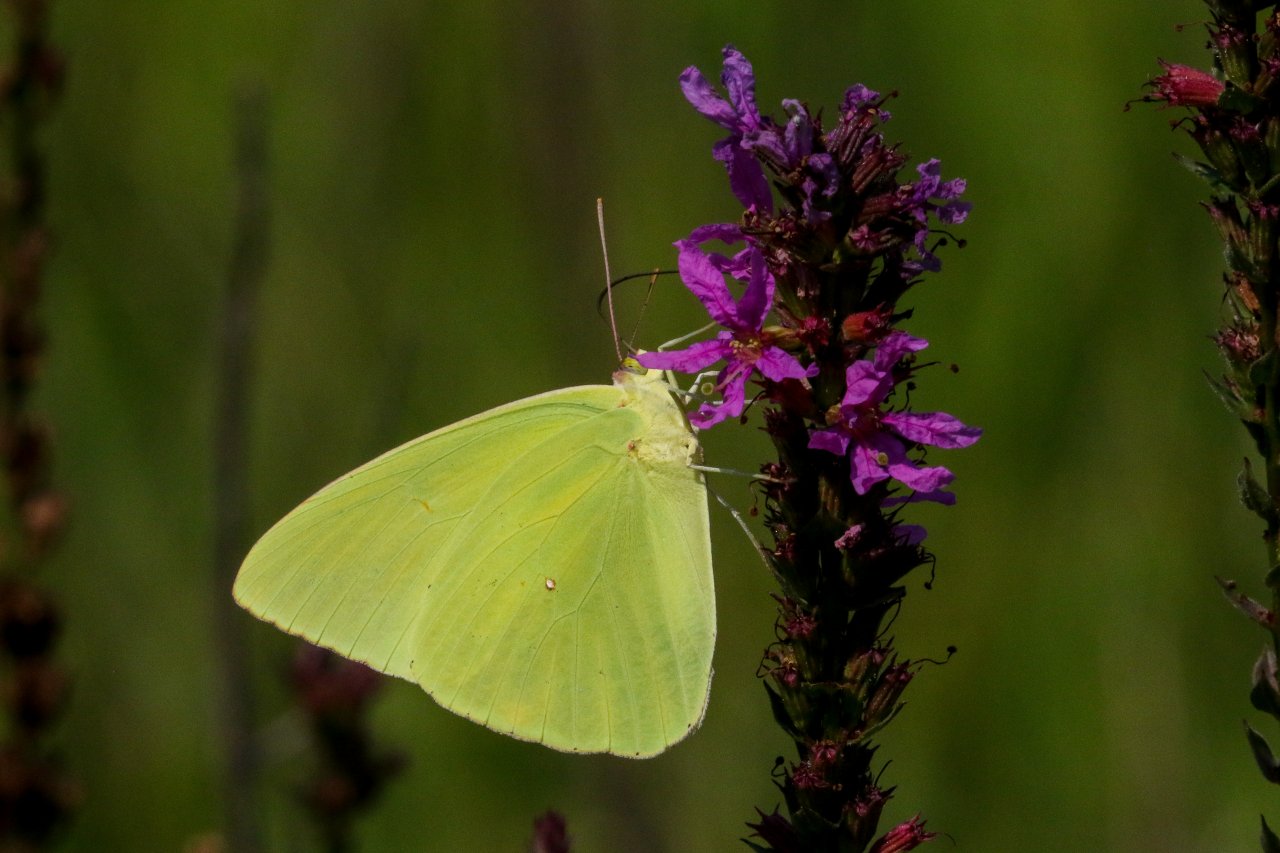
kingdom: Animalia
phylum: Arthropoda
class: Insecta
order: Lepidoptera
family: Pieridae
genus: Phoebis
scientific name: Phoebis sennae
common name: Cloudless Sulphur
